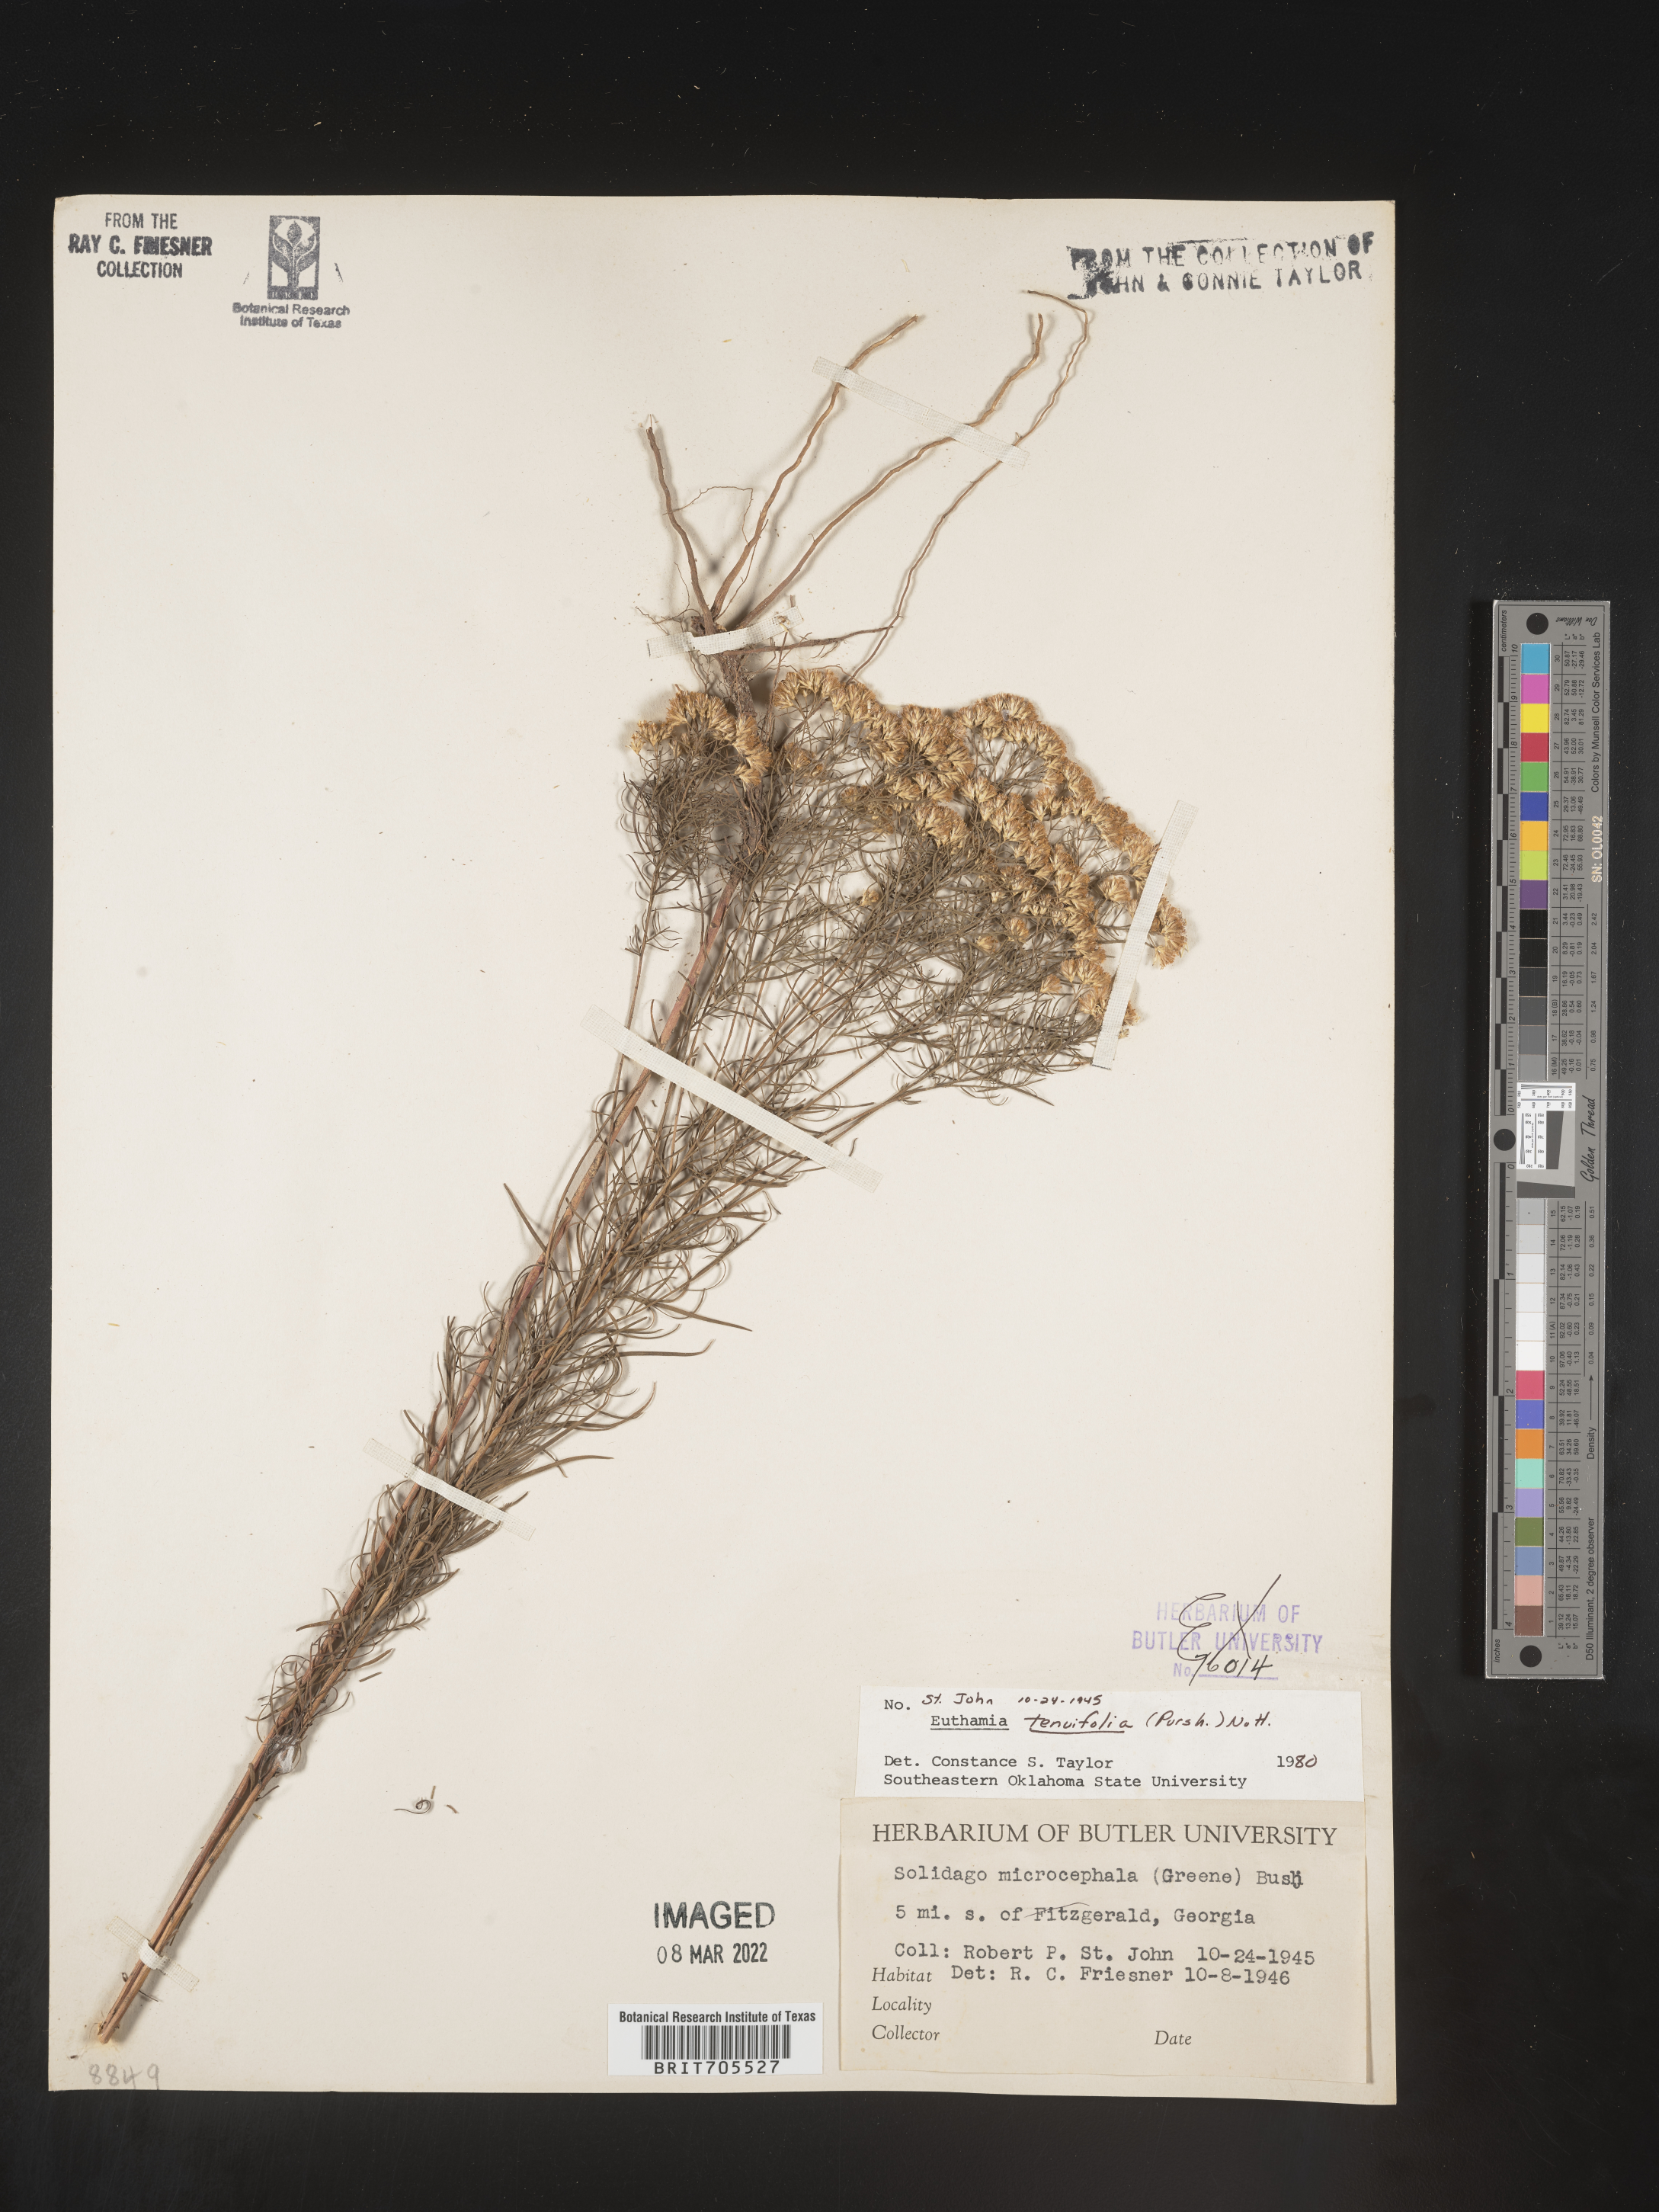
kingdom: Plantae
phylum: Tracheophyta
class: Magnoliopsida
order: Asterales
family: Asteraceae
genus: Euthamia
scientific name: Euthamia caroliniana
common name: Coastal plain goldentop
